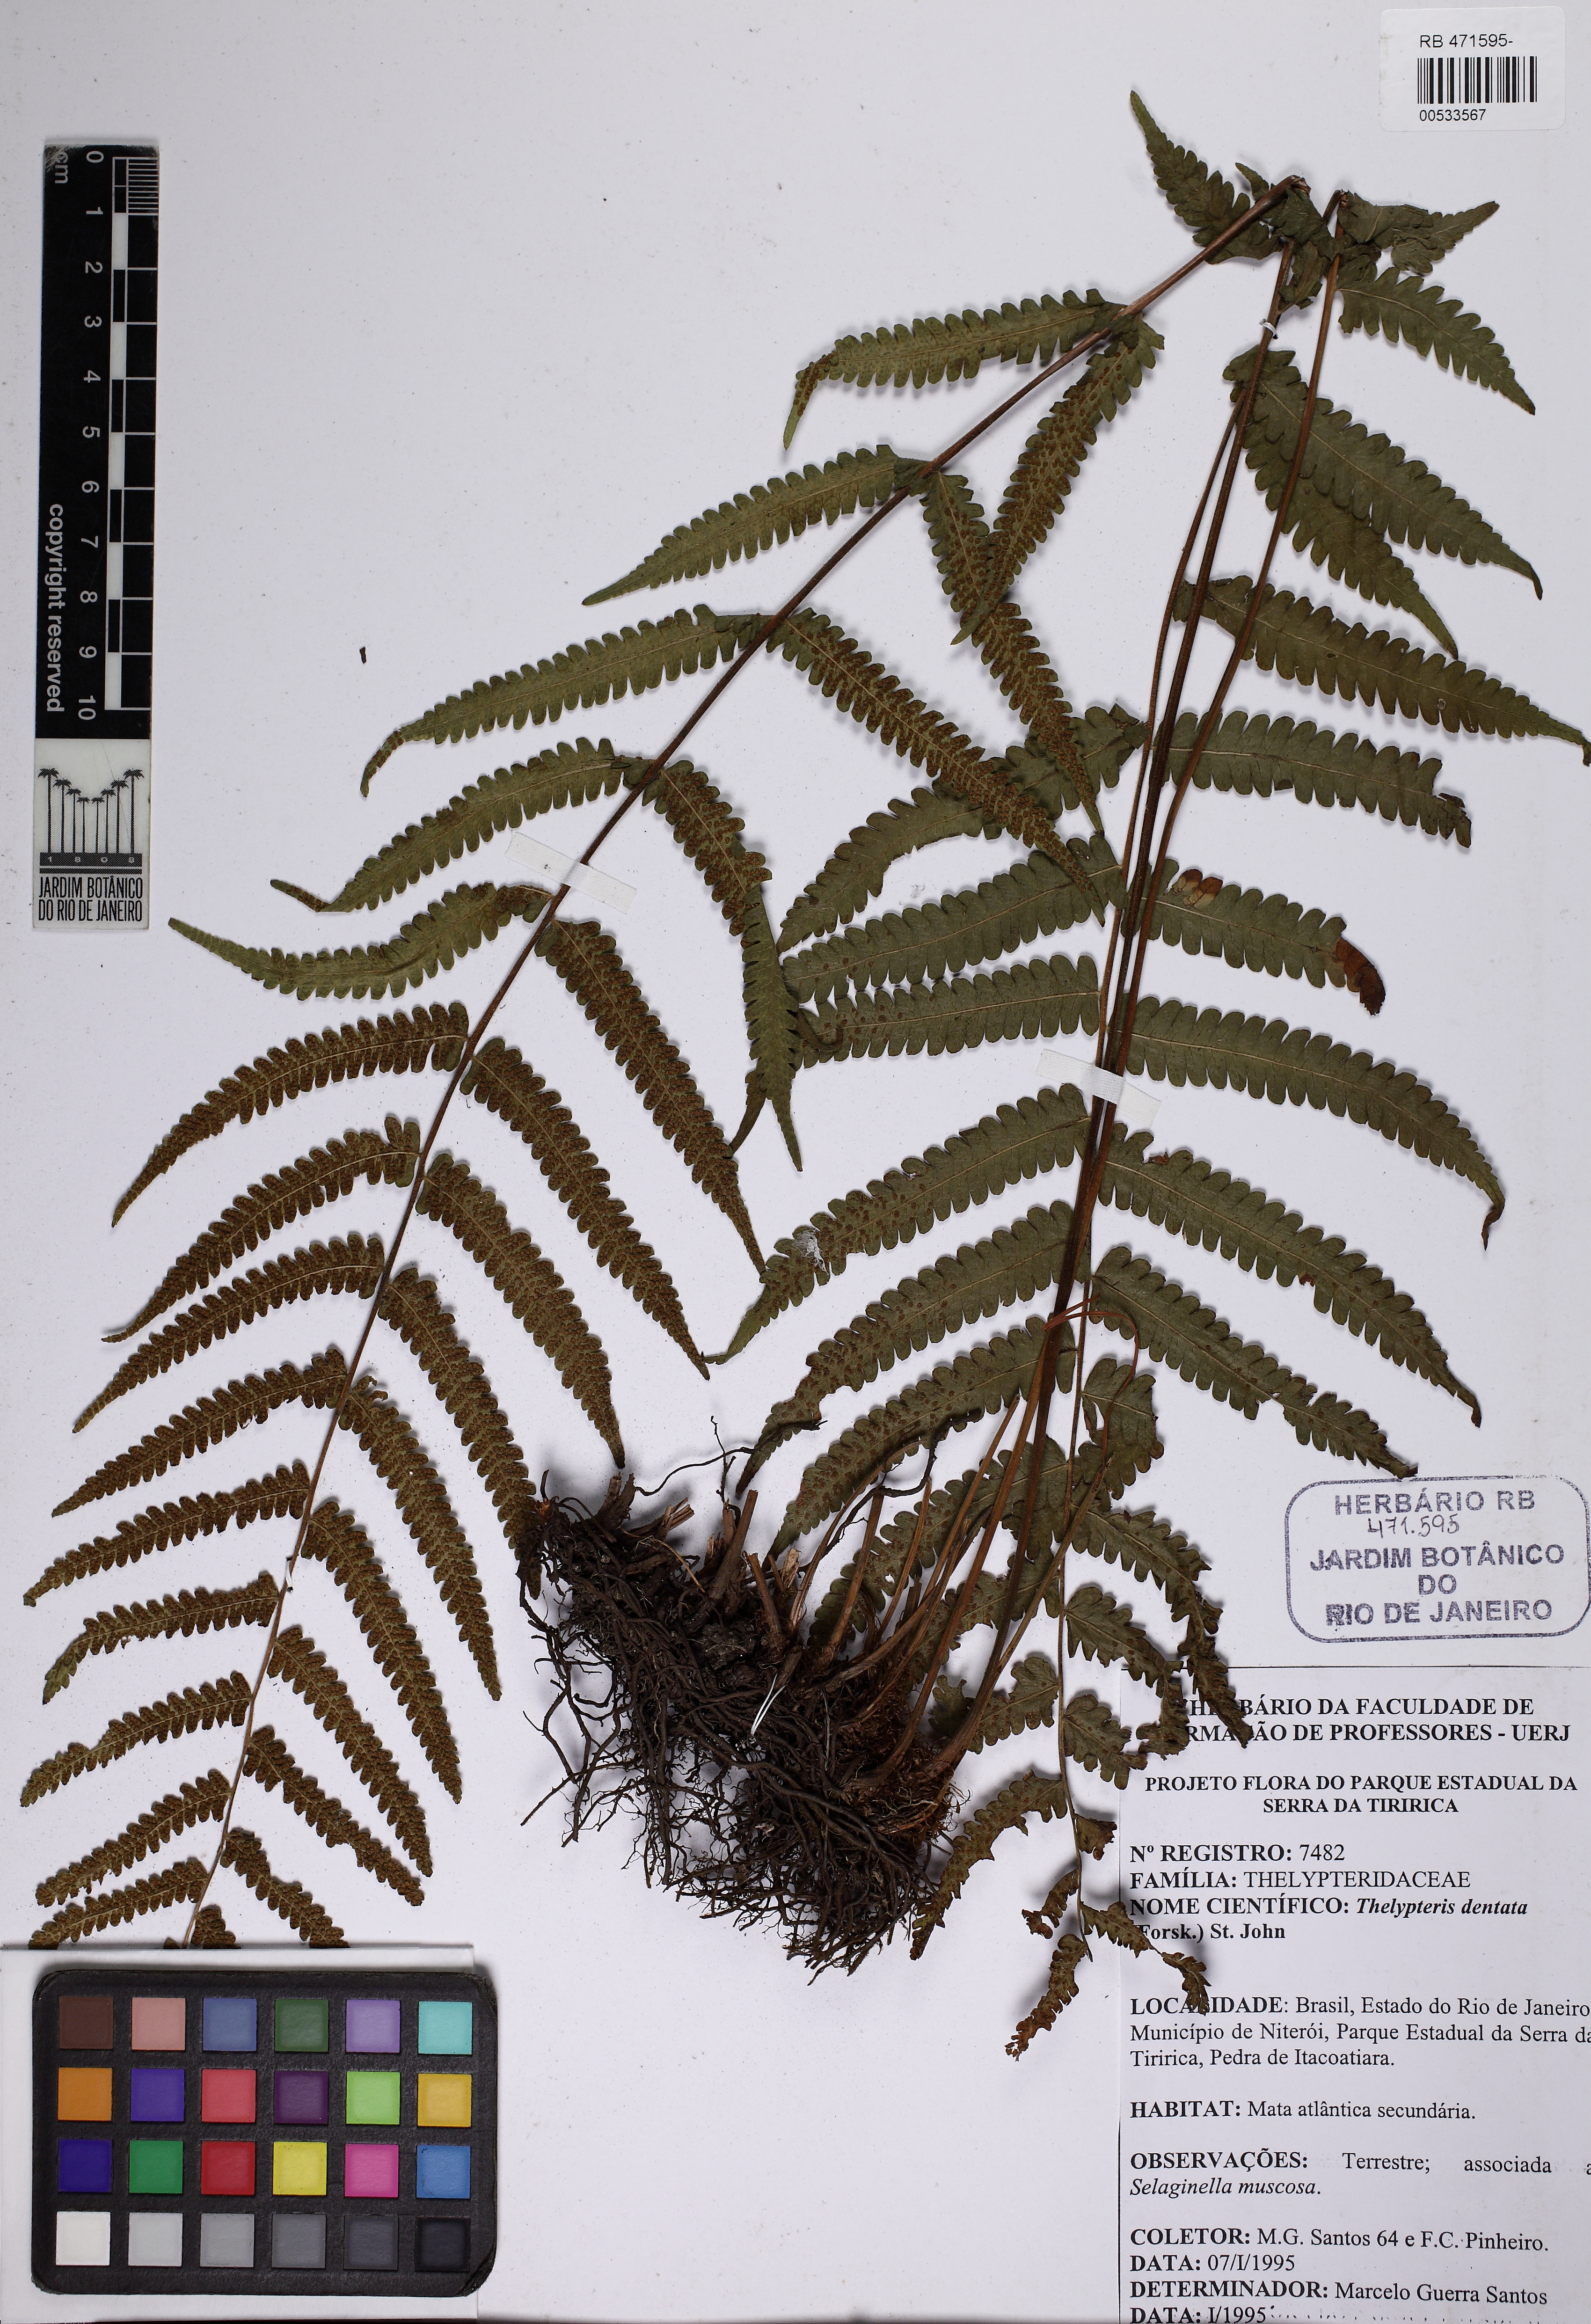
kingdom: Plantae
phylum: Tracheophyta
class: Polypodiopsida
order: Polypodiales
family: Thelypteridaceae
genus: Christella
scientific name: Christella dentata
